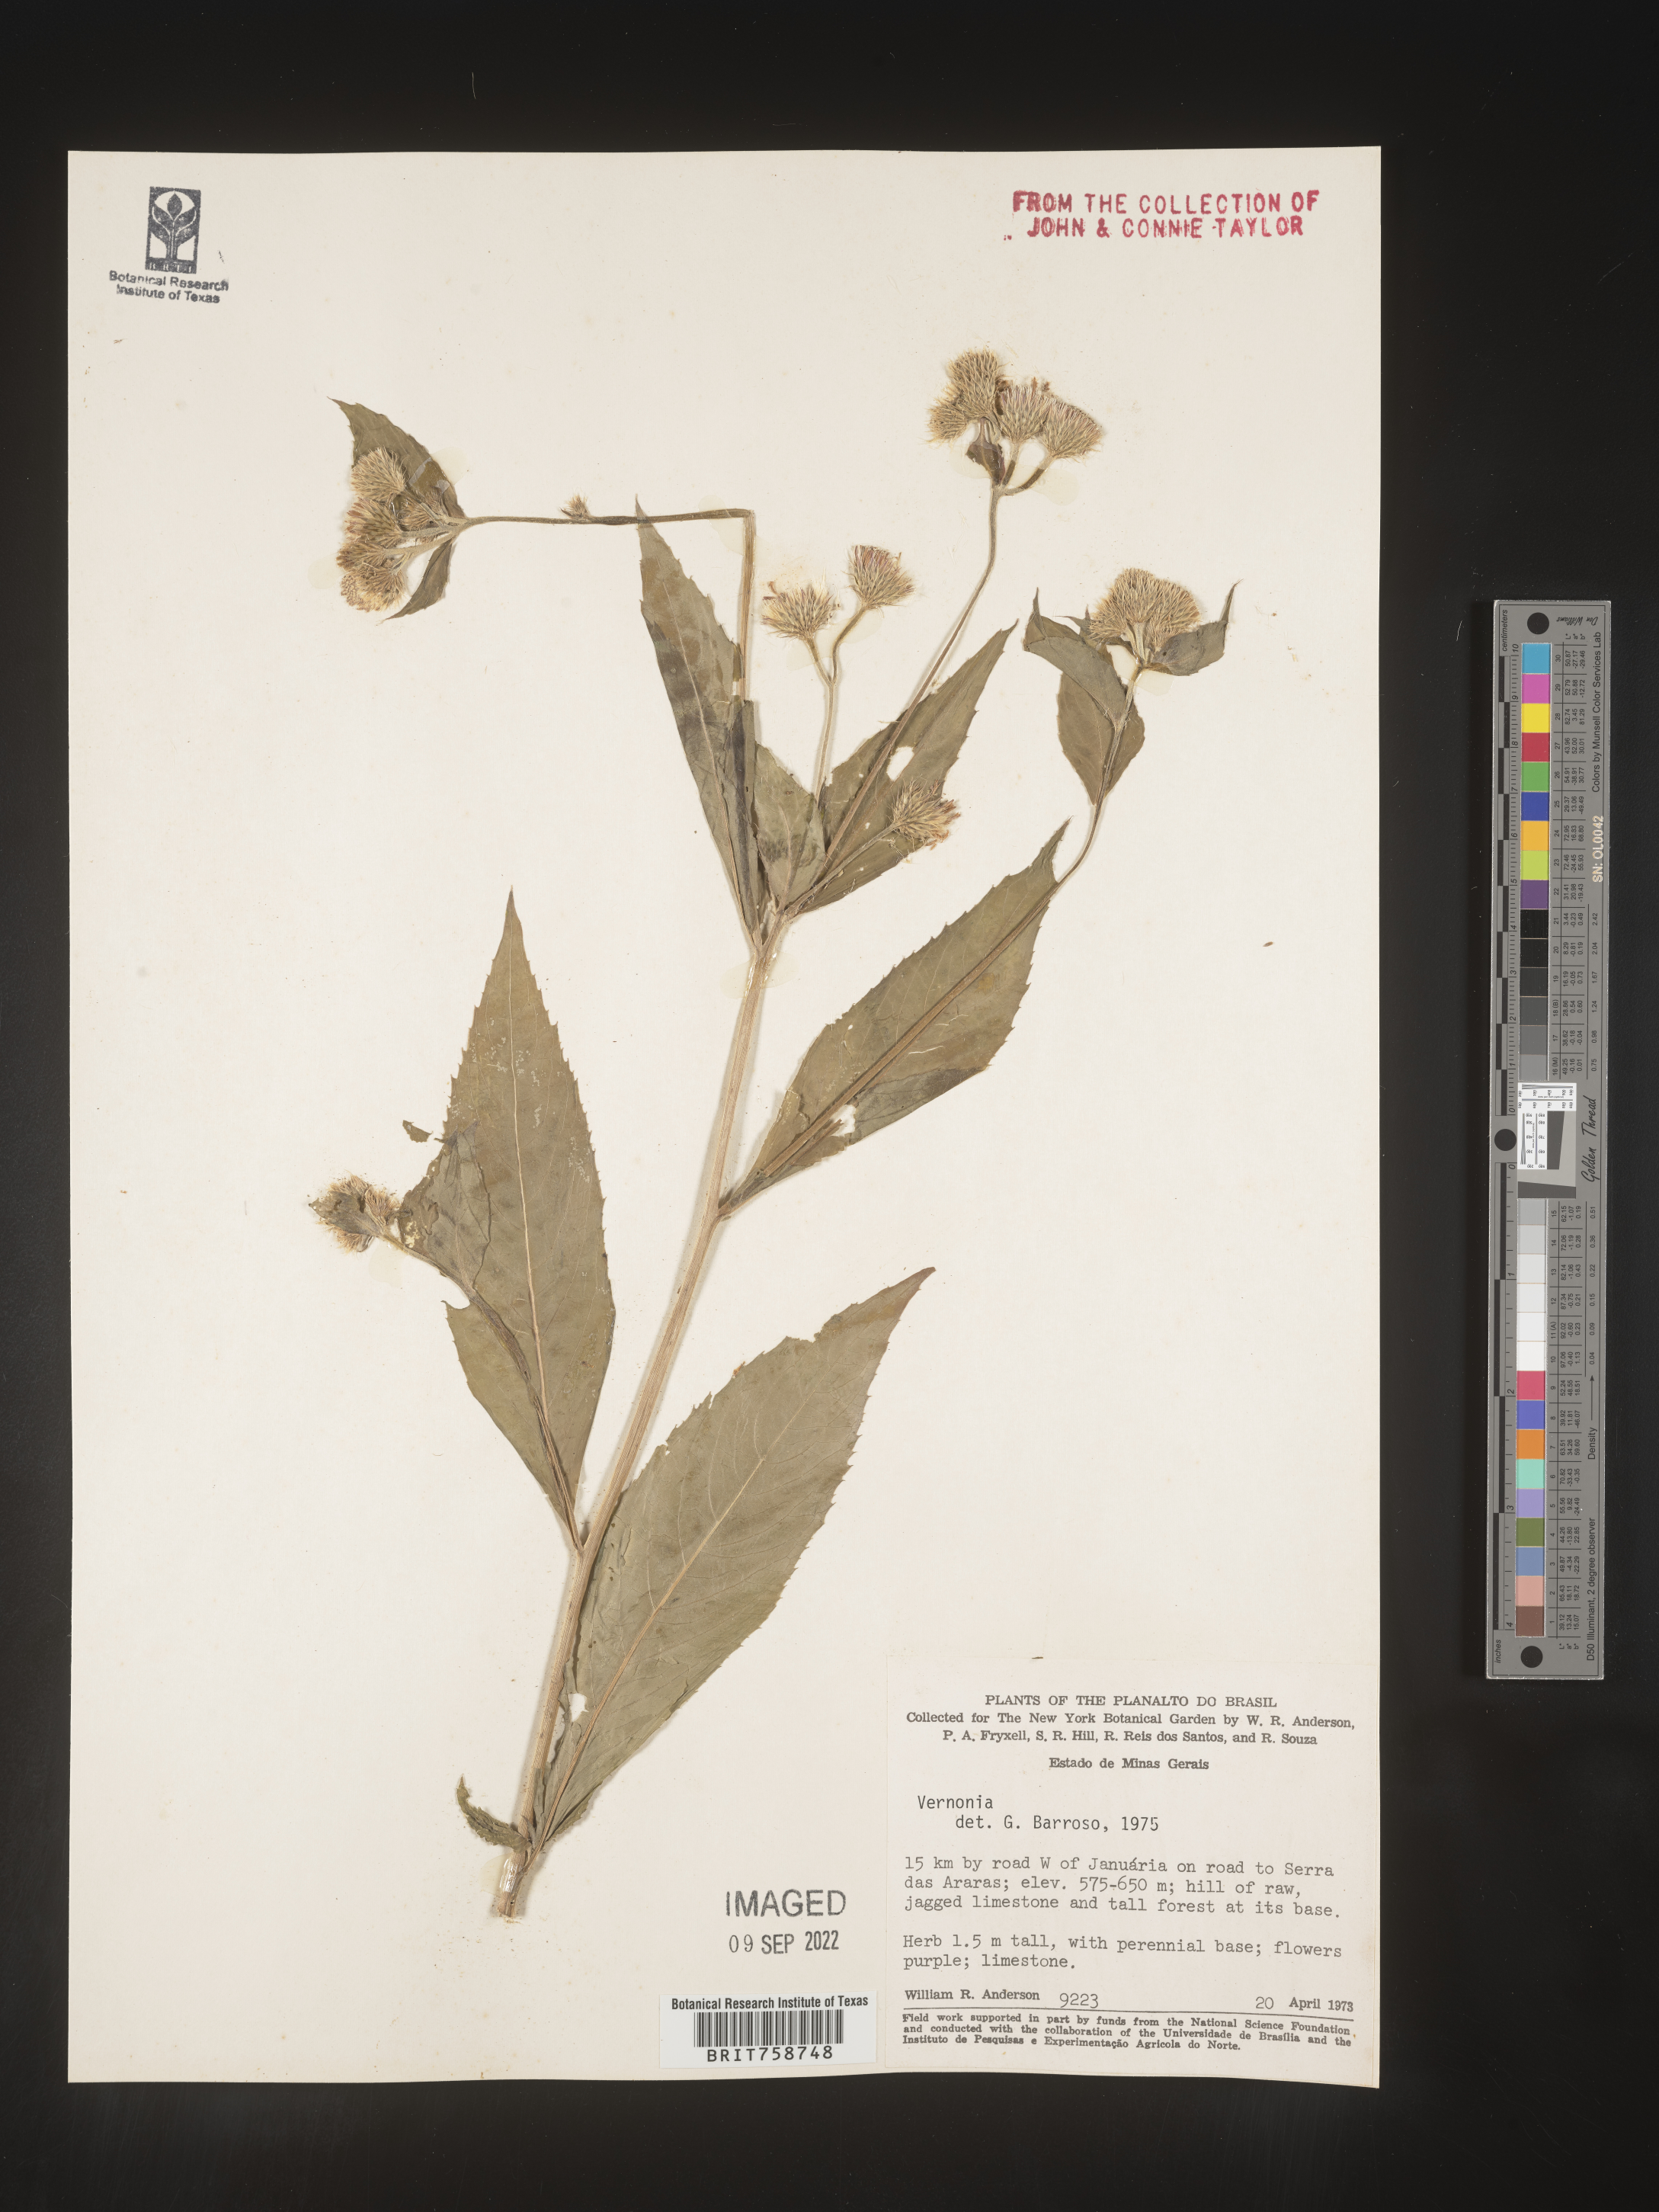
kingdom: Plantae
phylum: Tracheophyta
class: Magnoliopsida
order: Asterales
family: Asteraceae
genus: Vernonia
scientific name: Vernonia
